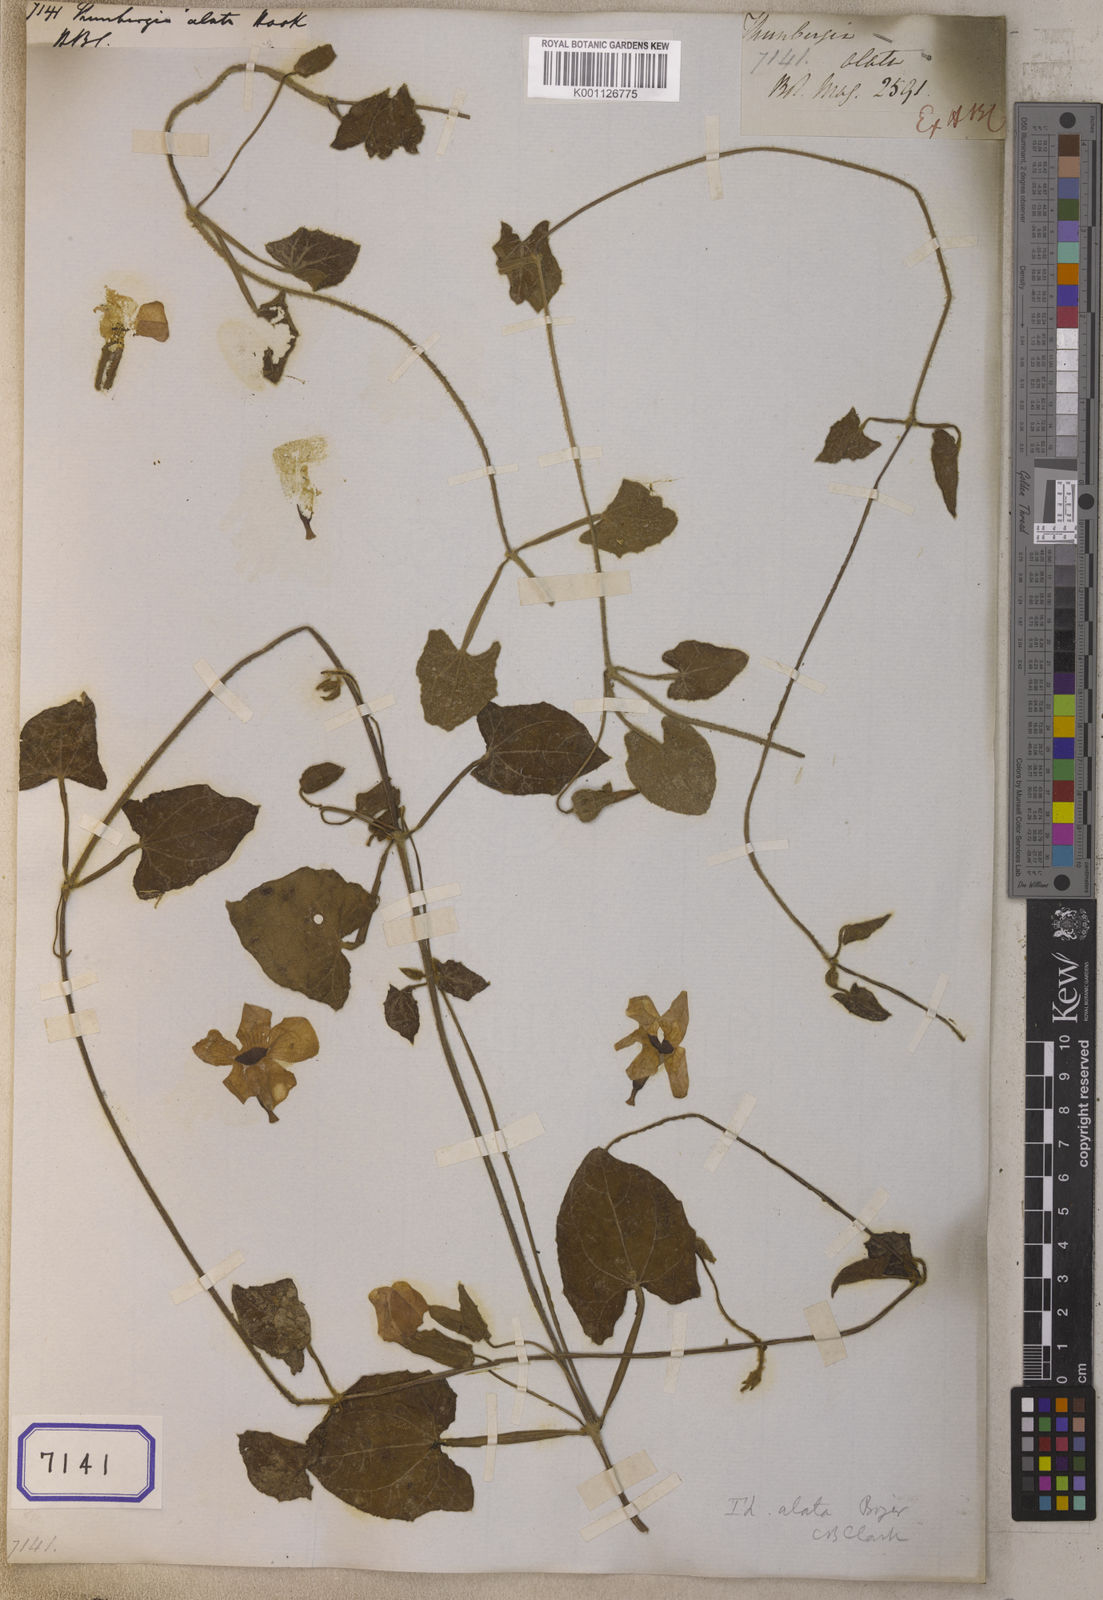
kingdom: Plantae
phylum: Tracheophyta
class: Magnoliopsida
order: Lamiales
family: Acanthaceae
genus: Thunbergia
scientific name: Thunbergia alata
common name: Blackeyed susan vine
